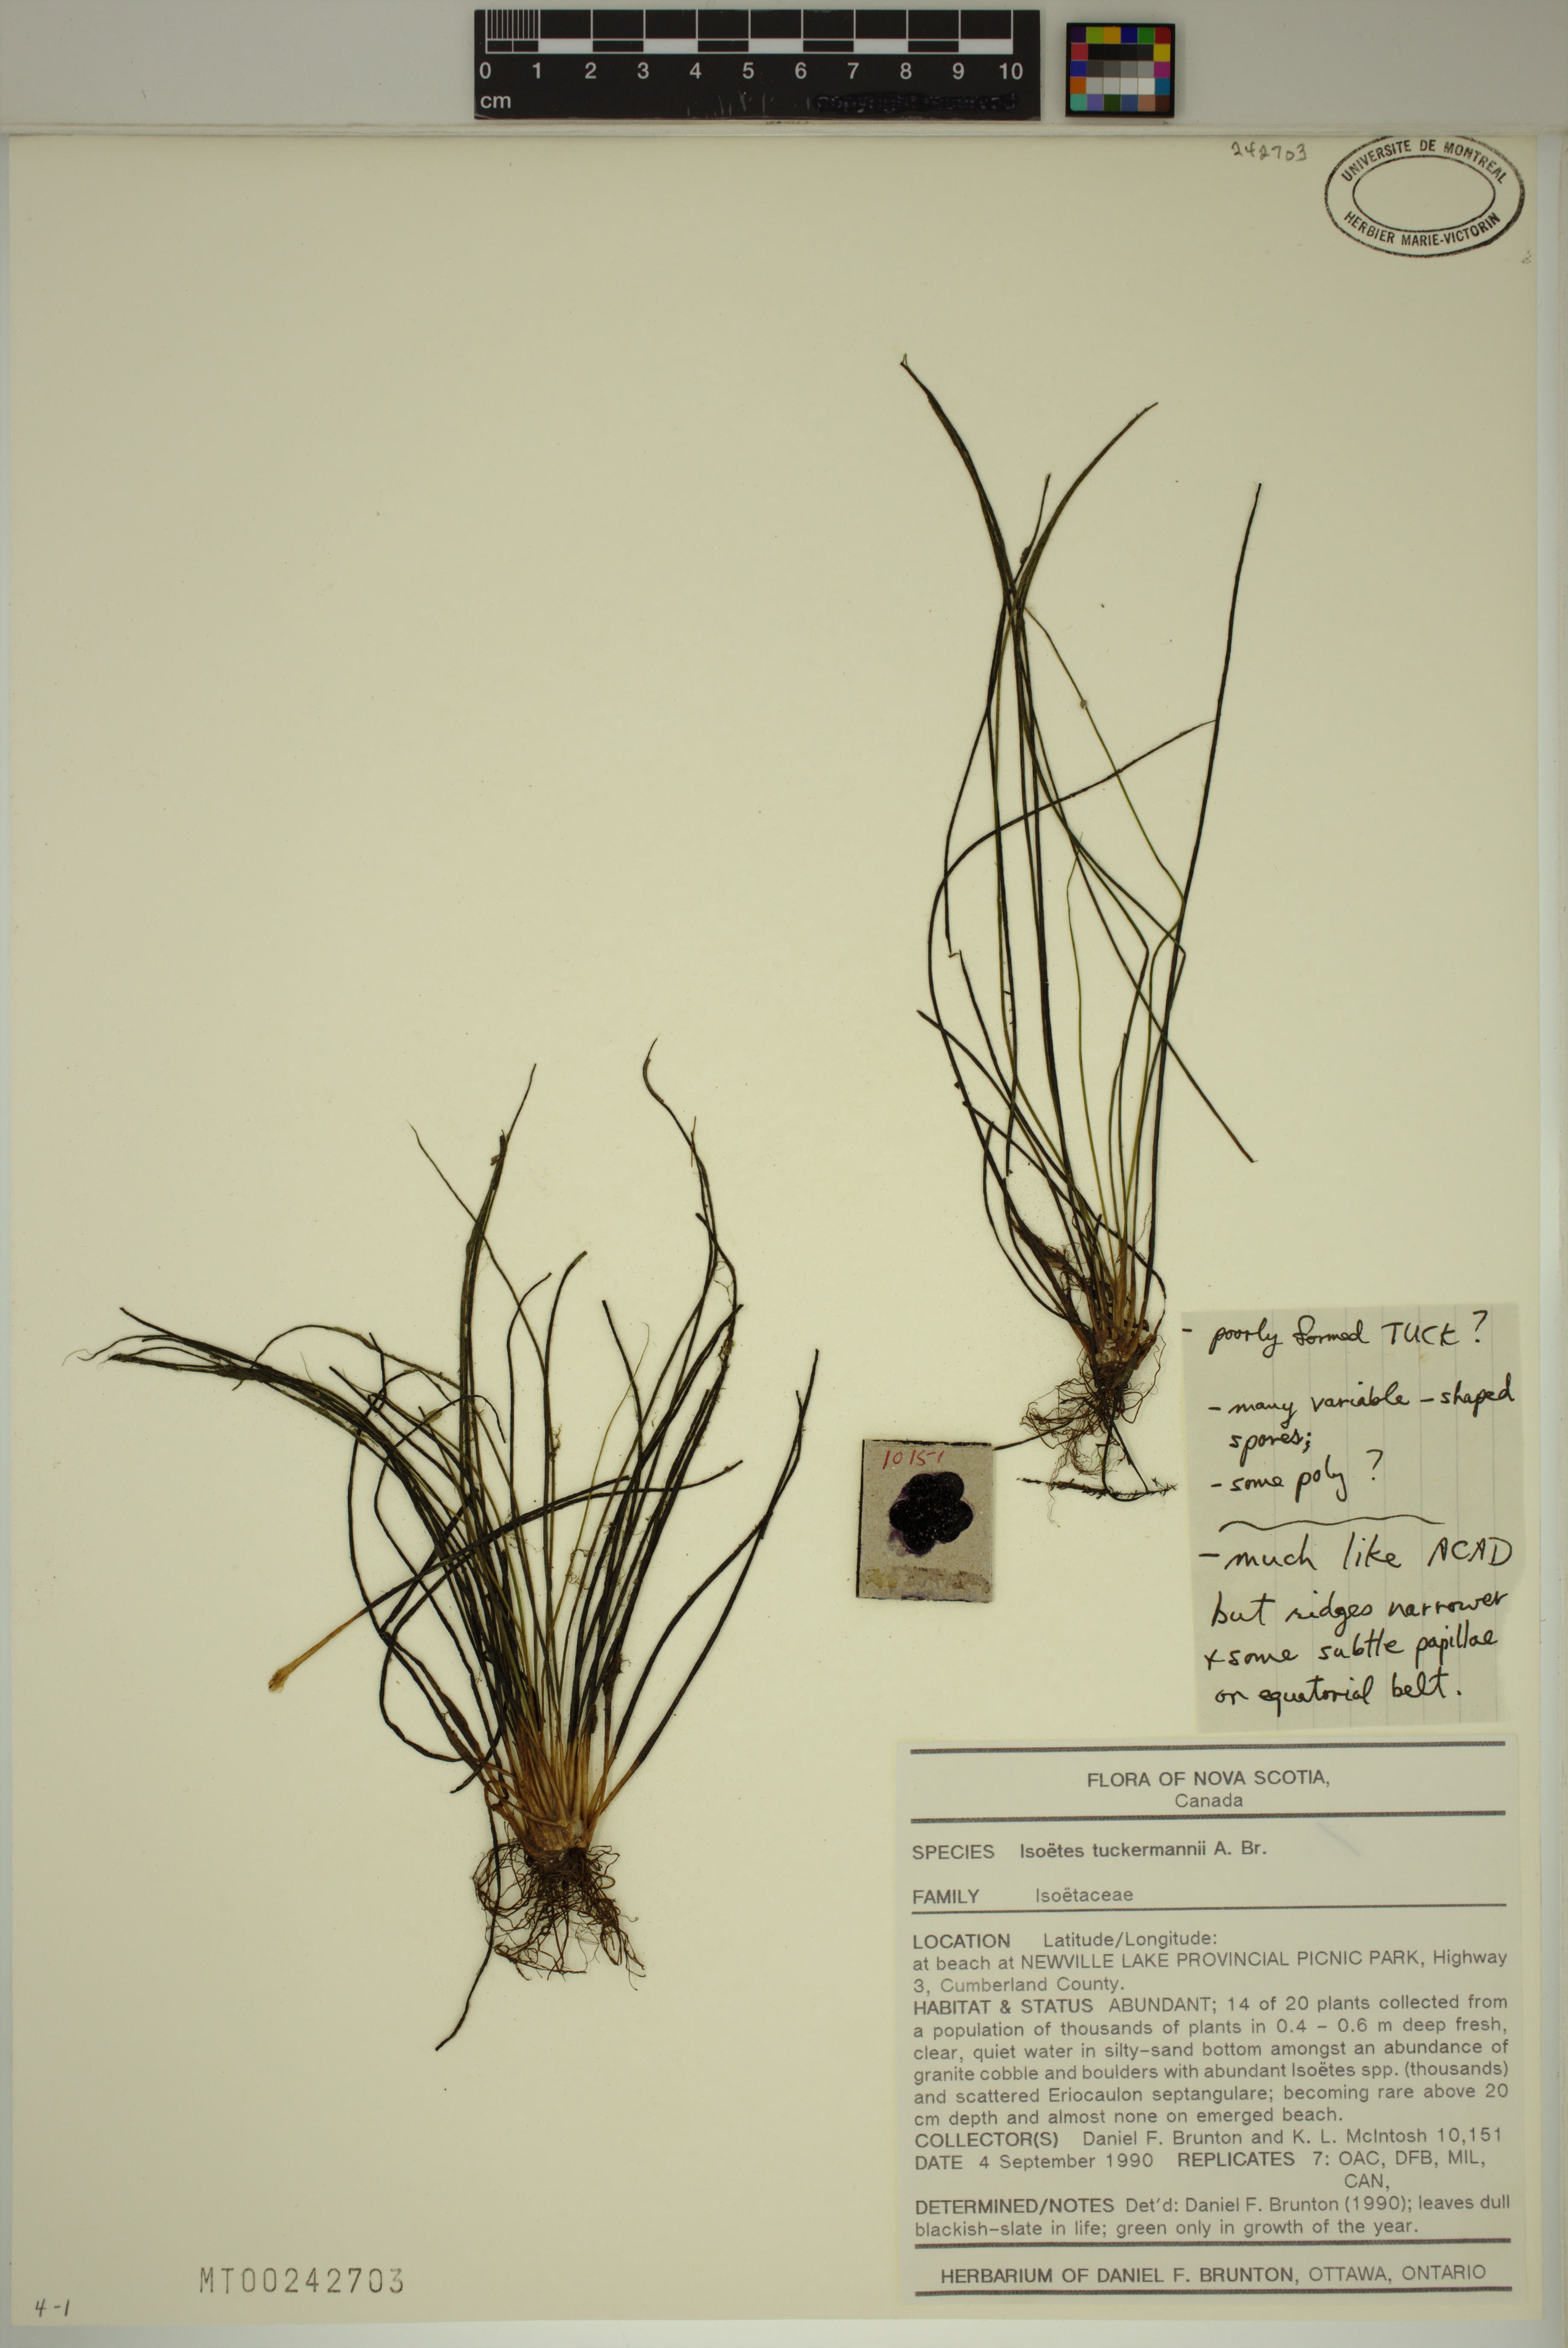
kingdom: Plantae
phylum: Tracheophyta
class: Lycopodiopsida
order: Isoetales
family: Isoetaceae
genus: Isoetes
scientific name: Isoetes tuckermanii
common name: Tuckerman's quillwort
